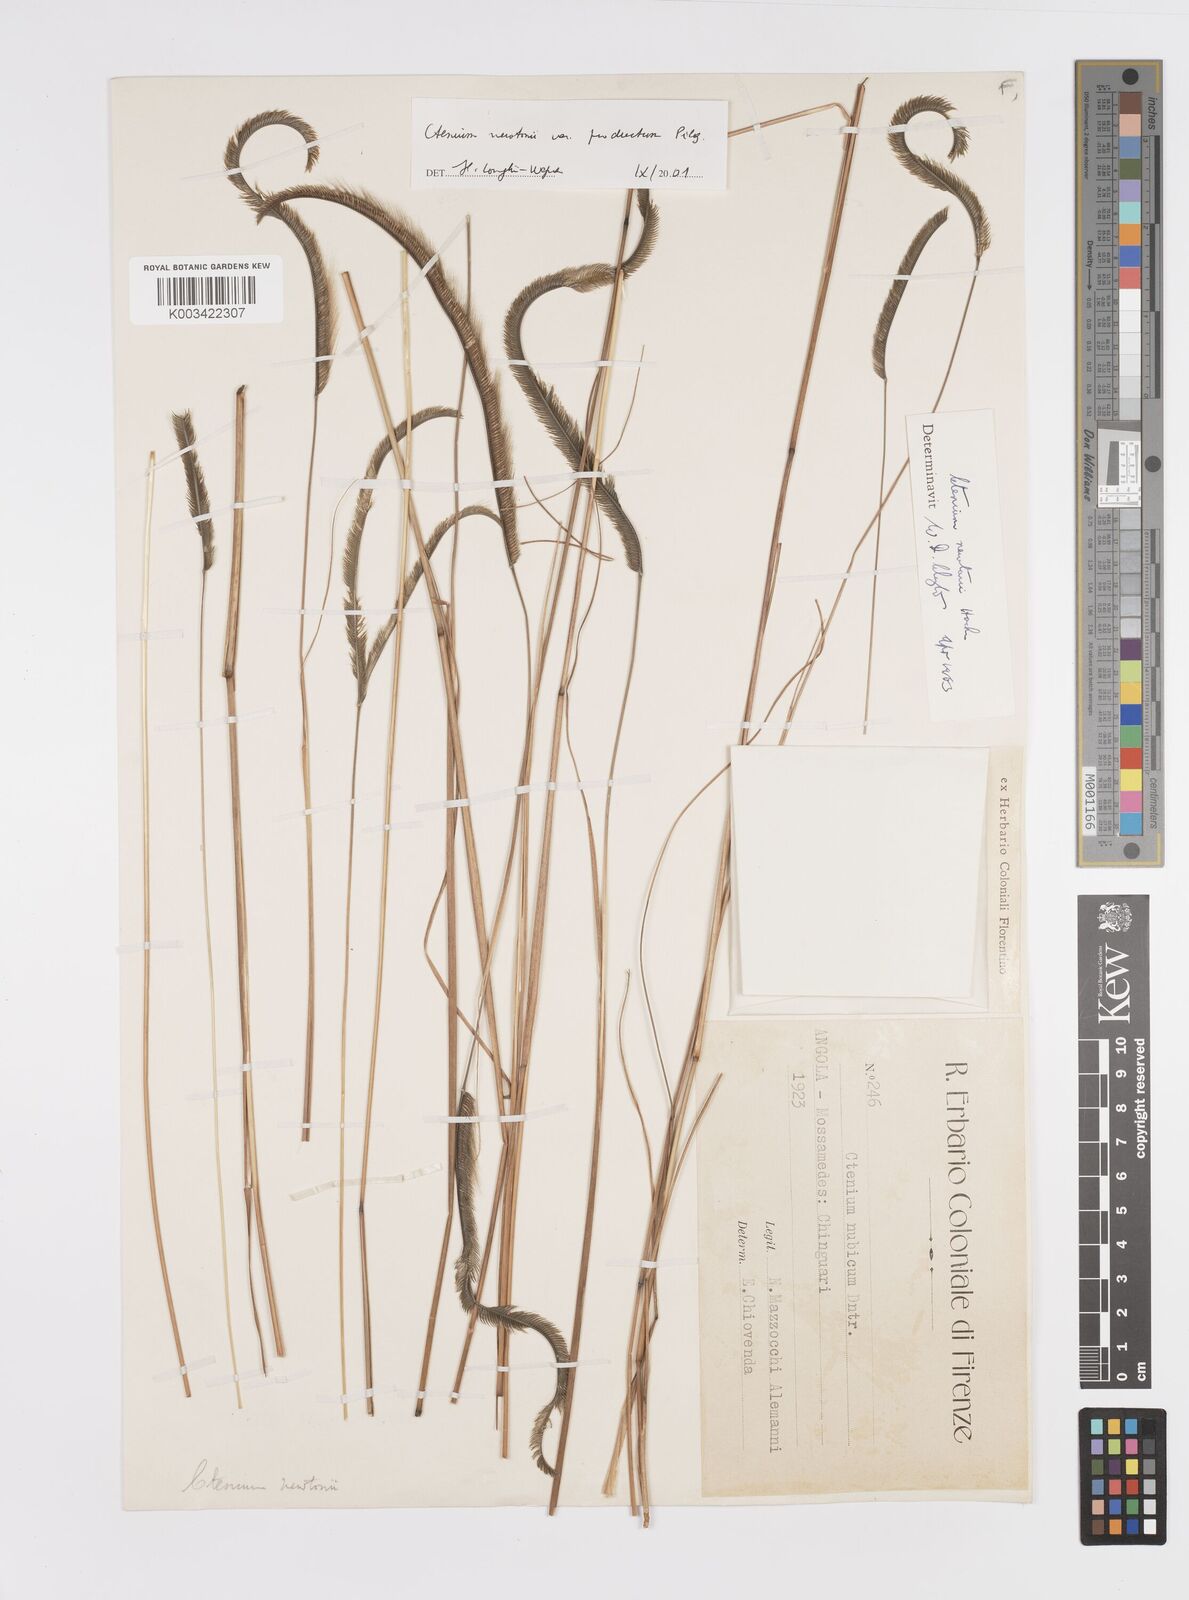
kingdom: Plantae
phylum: Tracheophyta
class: Liliopsida
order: Poales
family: Poaceae
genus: Ctenium
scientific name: Ctenium newtonii
